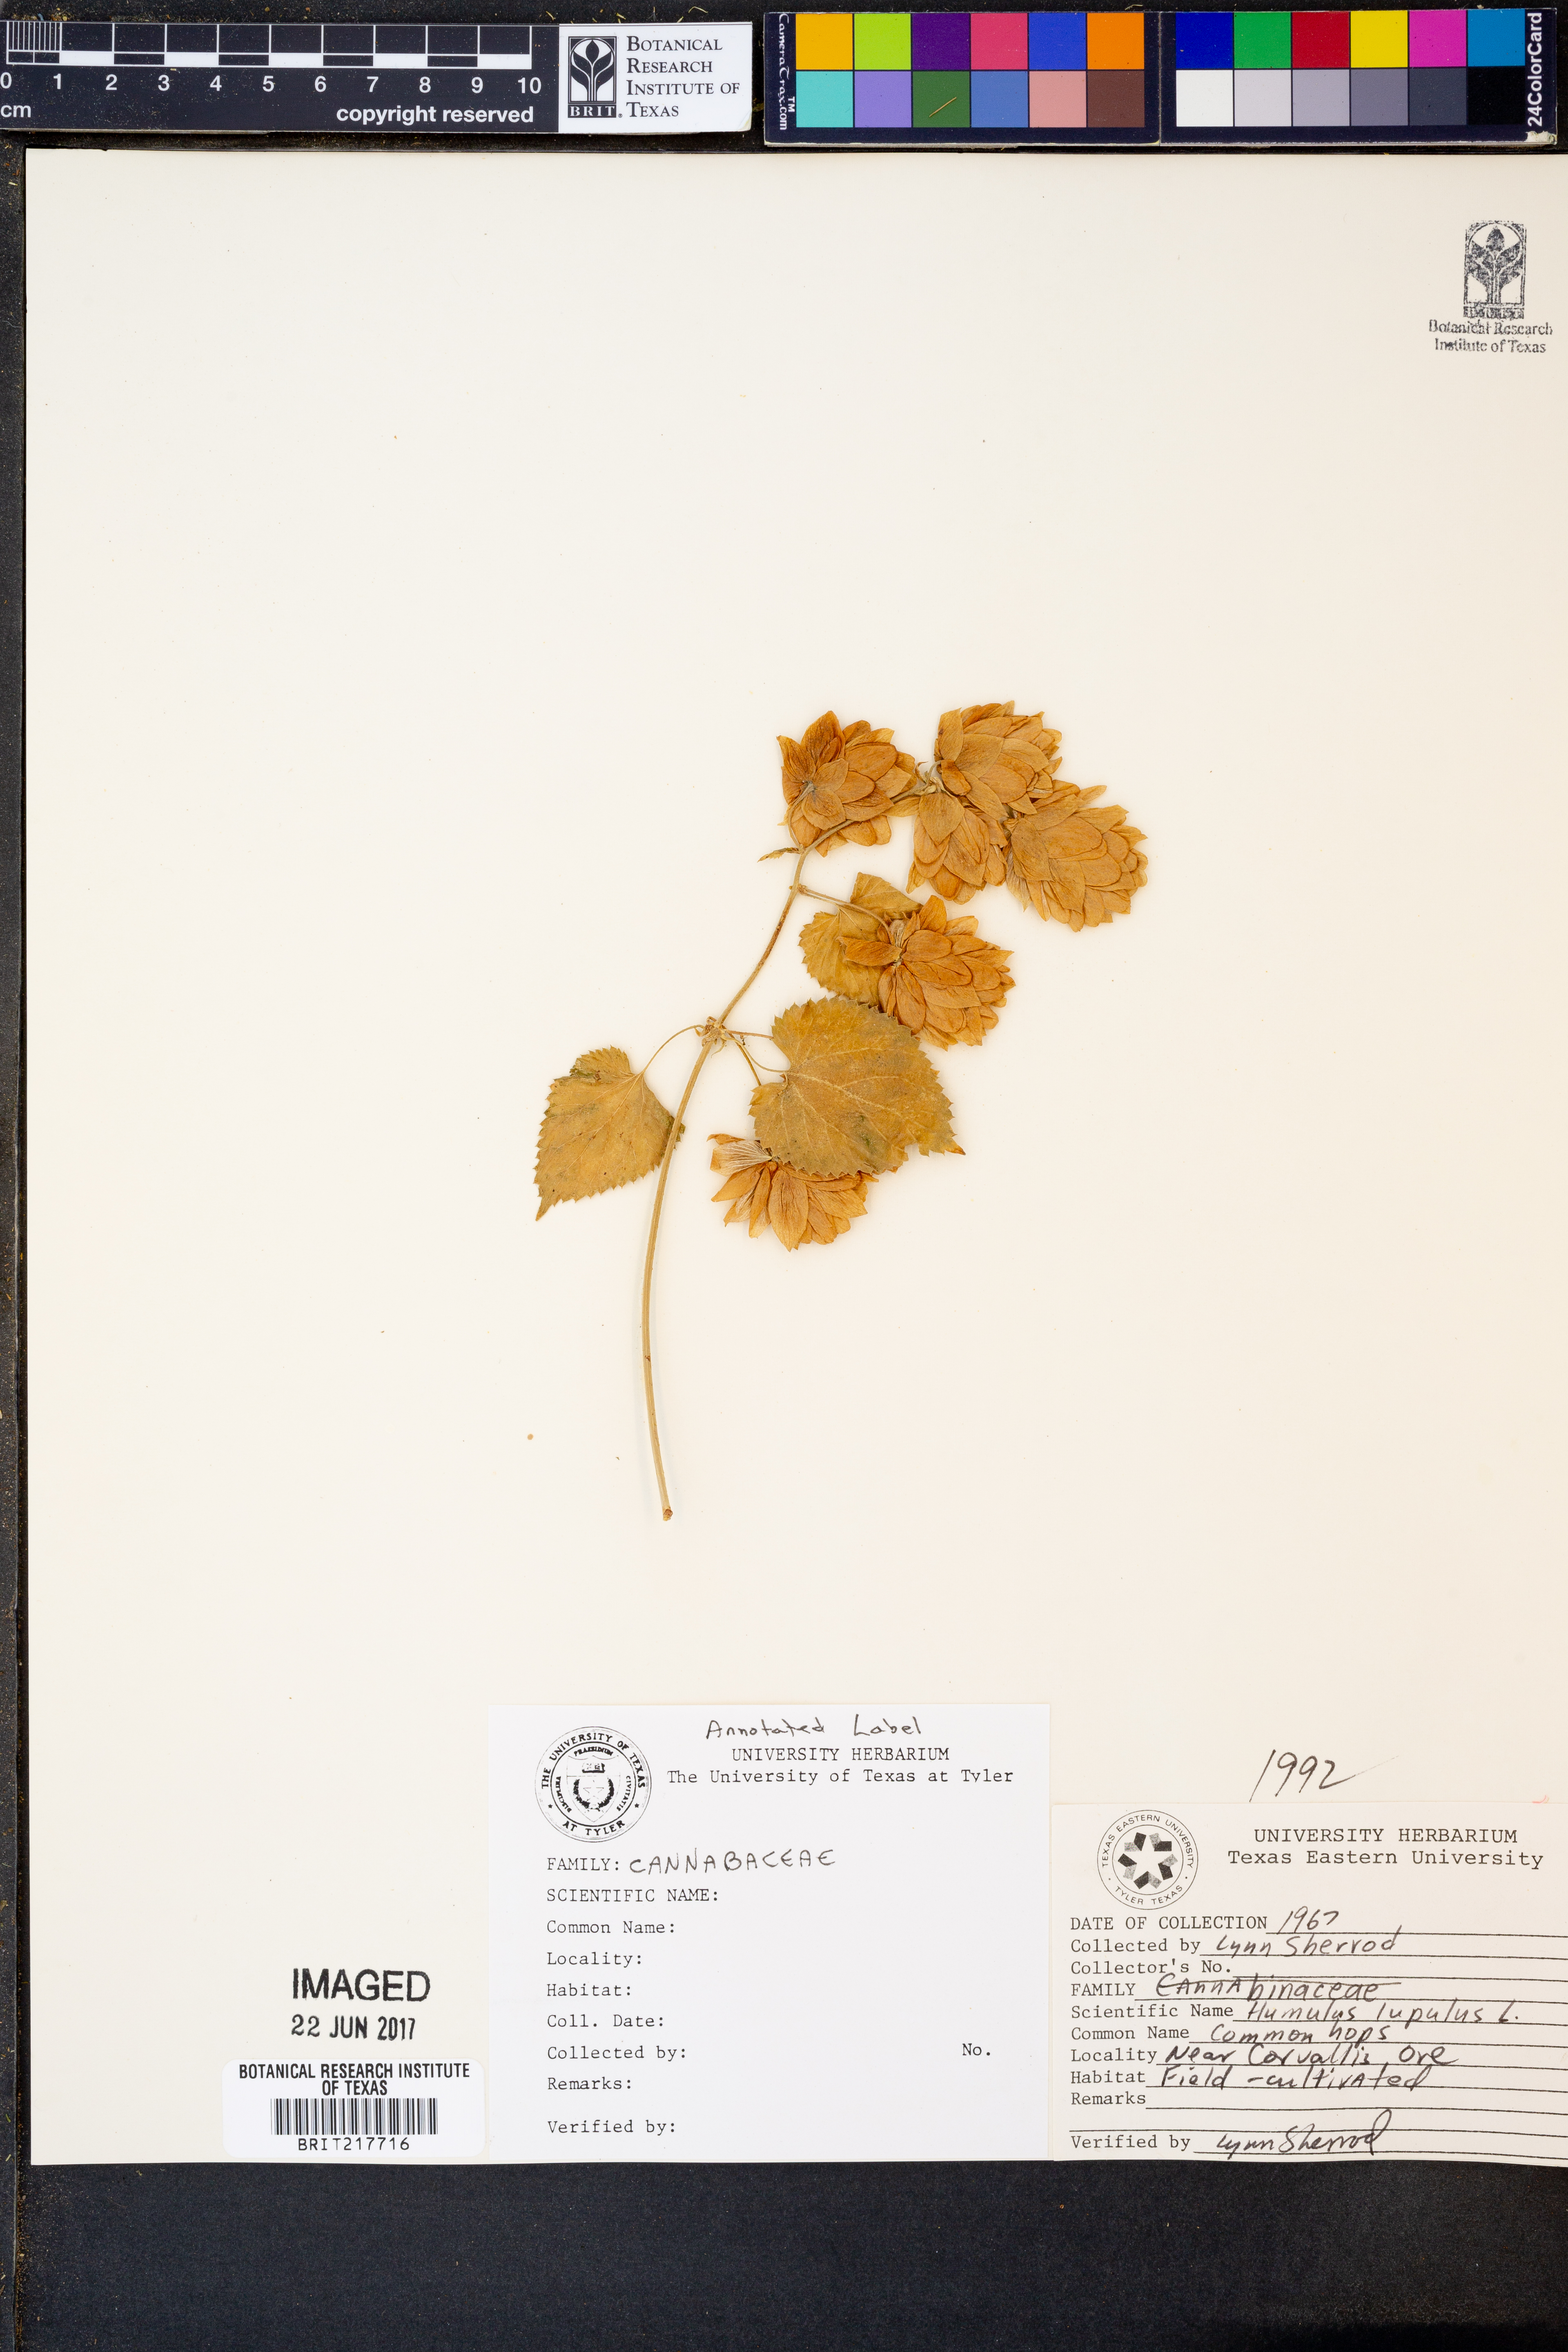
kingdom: Plantae
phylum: Tracheophyta
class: Magnoliopsida
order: Rosales
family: Cannabaceae
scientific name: Cannabaceae
